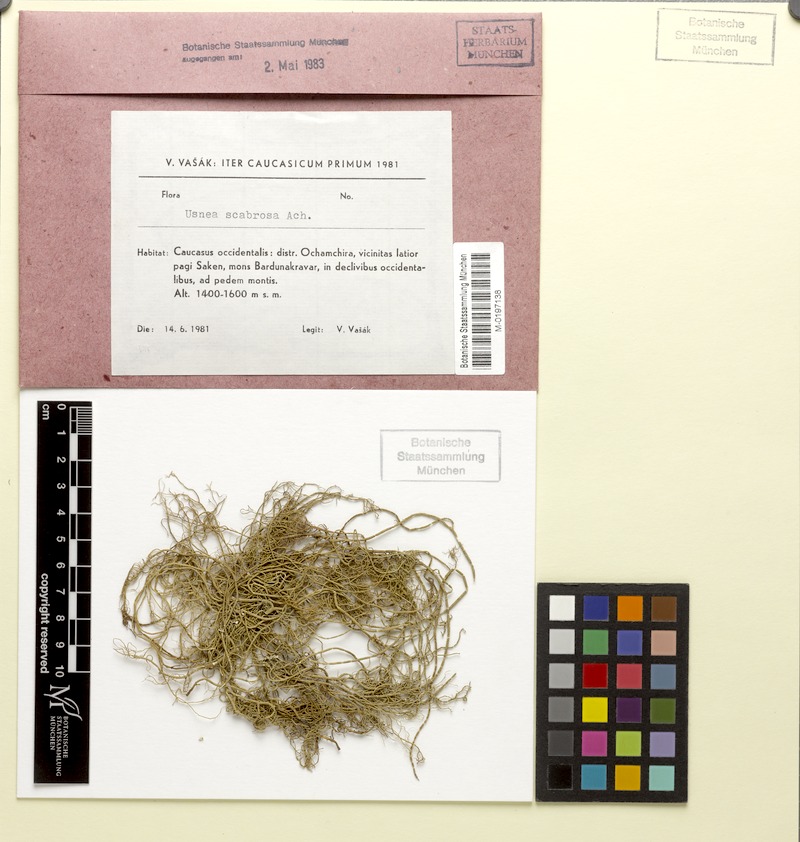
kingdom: Fungi
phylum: Ascomycota
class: Lecanoromycetes
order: Lecanorales
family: Parmeliaceae
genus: Usnea
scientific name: Usnea scabrida
